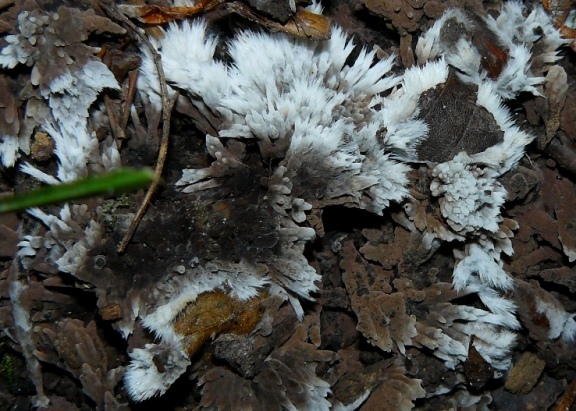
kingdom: Fungi
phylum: Basidiomycota
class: Agaricomycetes
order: Thelephorales
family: Thelephoraceae
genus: Thelephora
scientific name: Thelephora penicillata
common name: fladtrådt frynsesvamp
